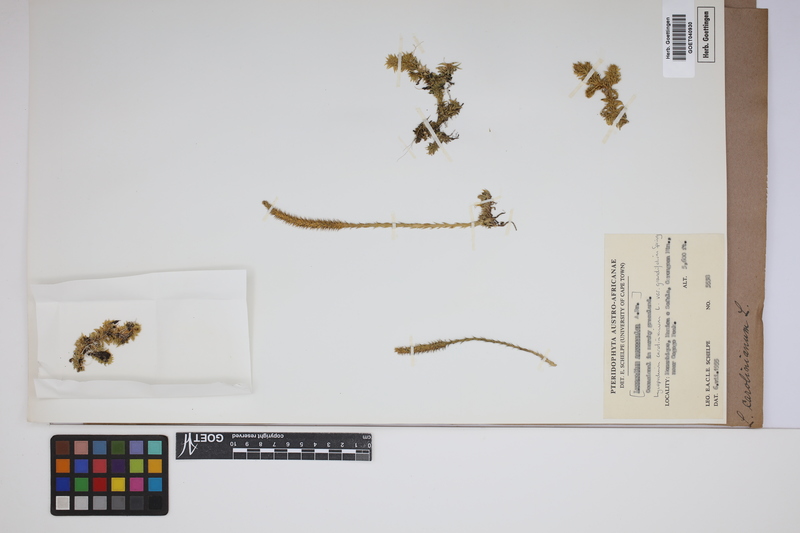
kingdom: Plantae
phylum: Tracheophyta
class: Lycopodiopsida
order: Lycopodiales
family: Lycopodiaceae
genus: Brownseya
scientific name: Brownseya serpentina
